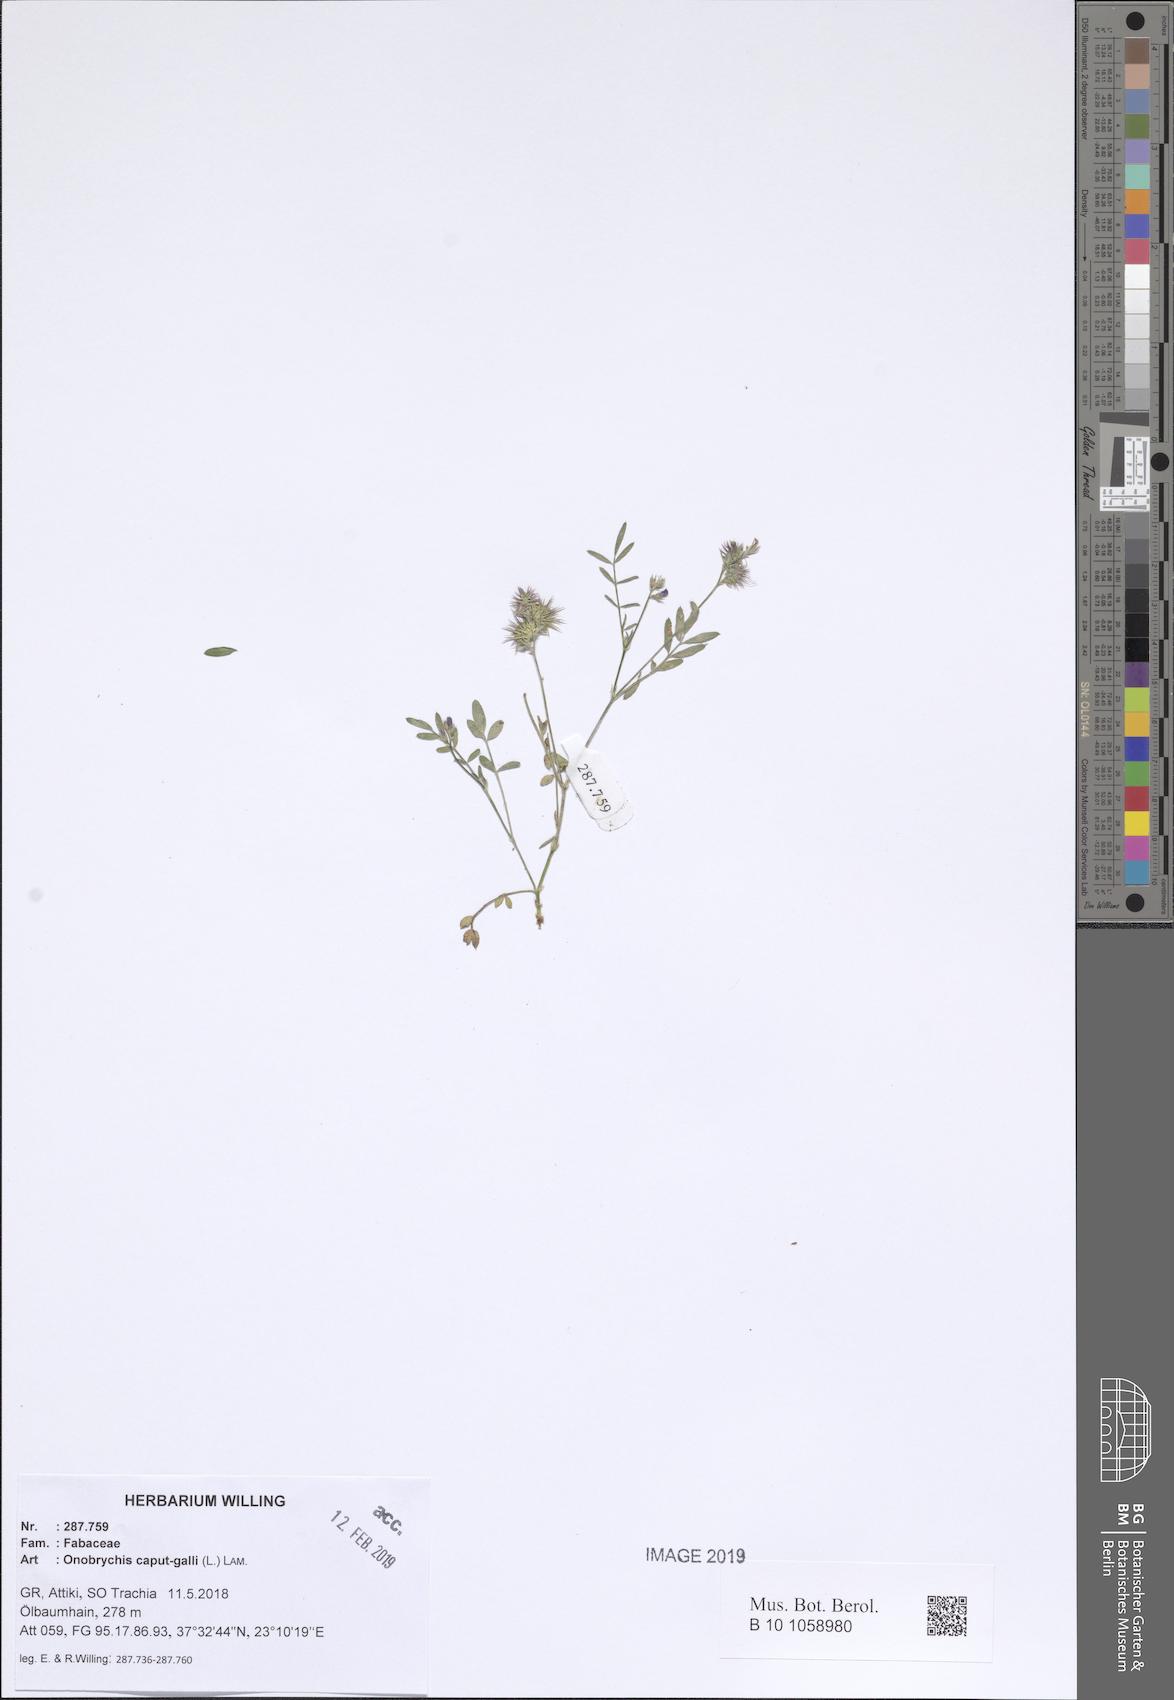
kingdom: Plantae
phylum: Tracheophyta
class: Magnoliopsida
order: Fabales
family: Fabaceae
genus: Onobrychis
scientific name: Onobrychis caput-galli
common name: Cockscomb sainfoin
